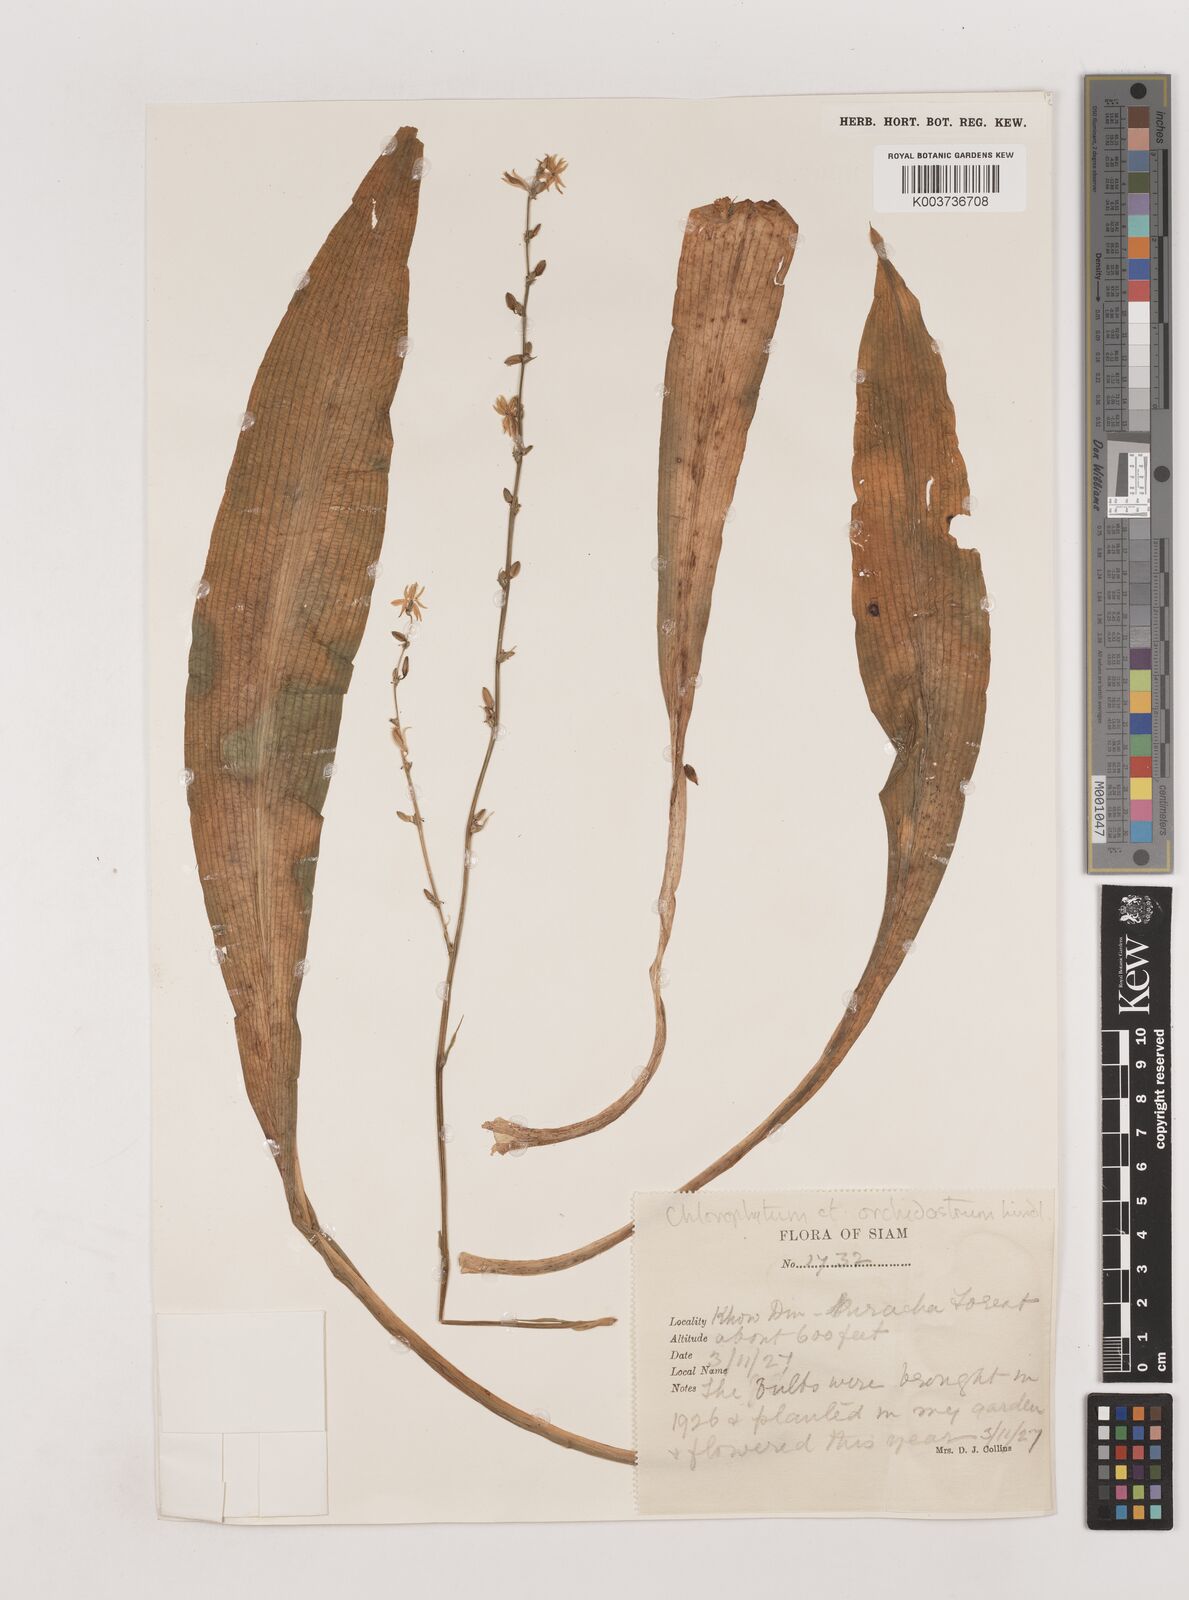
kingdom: Plantae
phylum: Tracheophyta
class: Liliopsida
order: Asparagales
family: Asparagaceae
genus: Chlorophytum
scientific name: Chlorophytum orchidastrum
